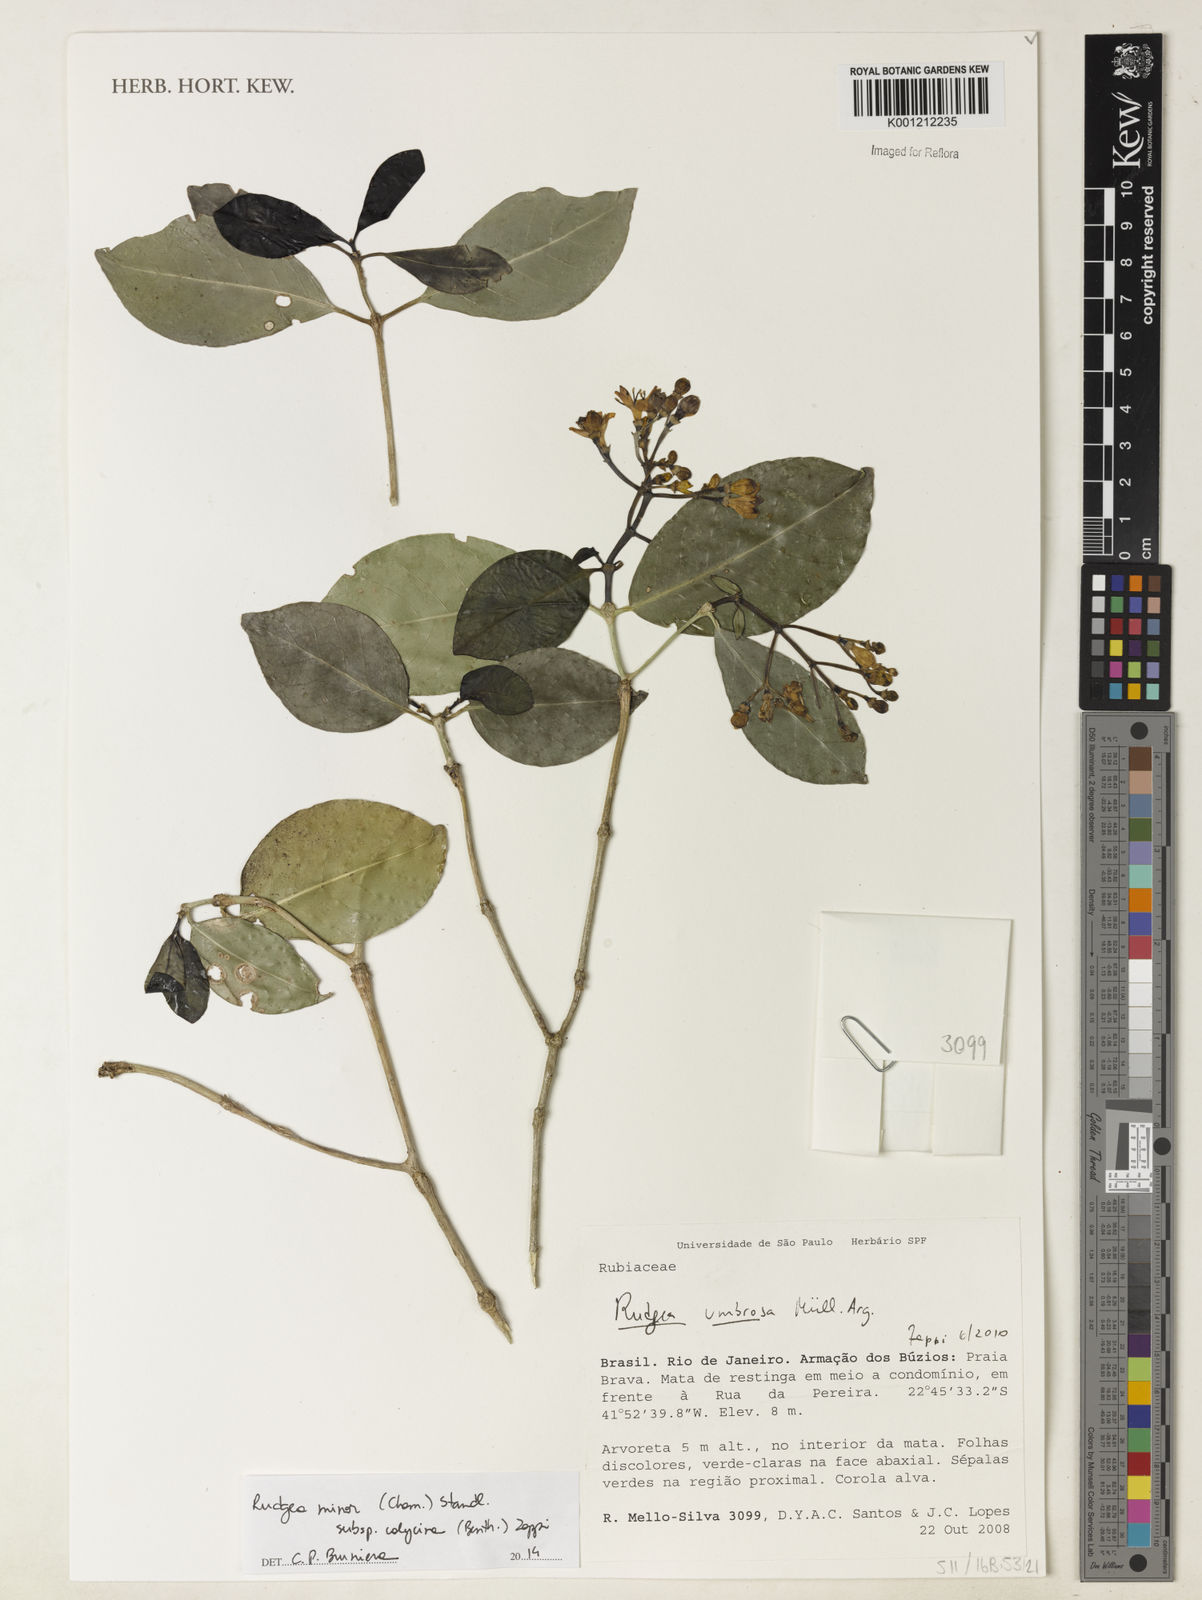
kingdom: Plantae
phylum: Tracheophyta
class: Magnoliopsida
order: Gentianales
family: Rubiaceae
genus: Rudgea
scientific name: Rudgea minor
